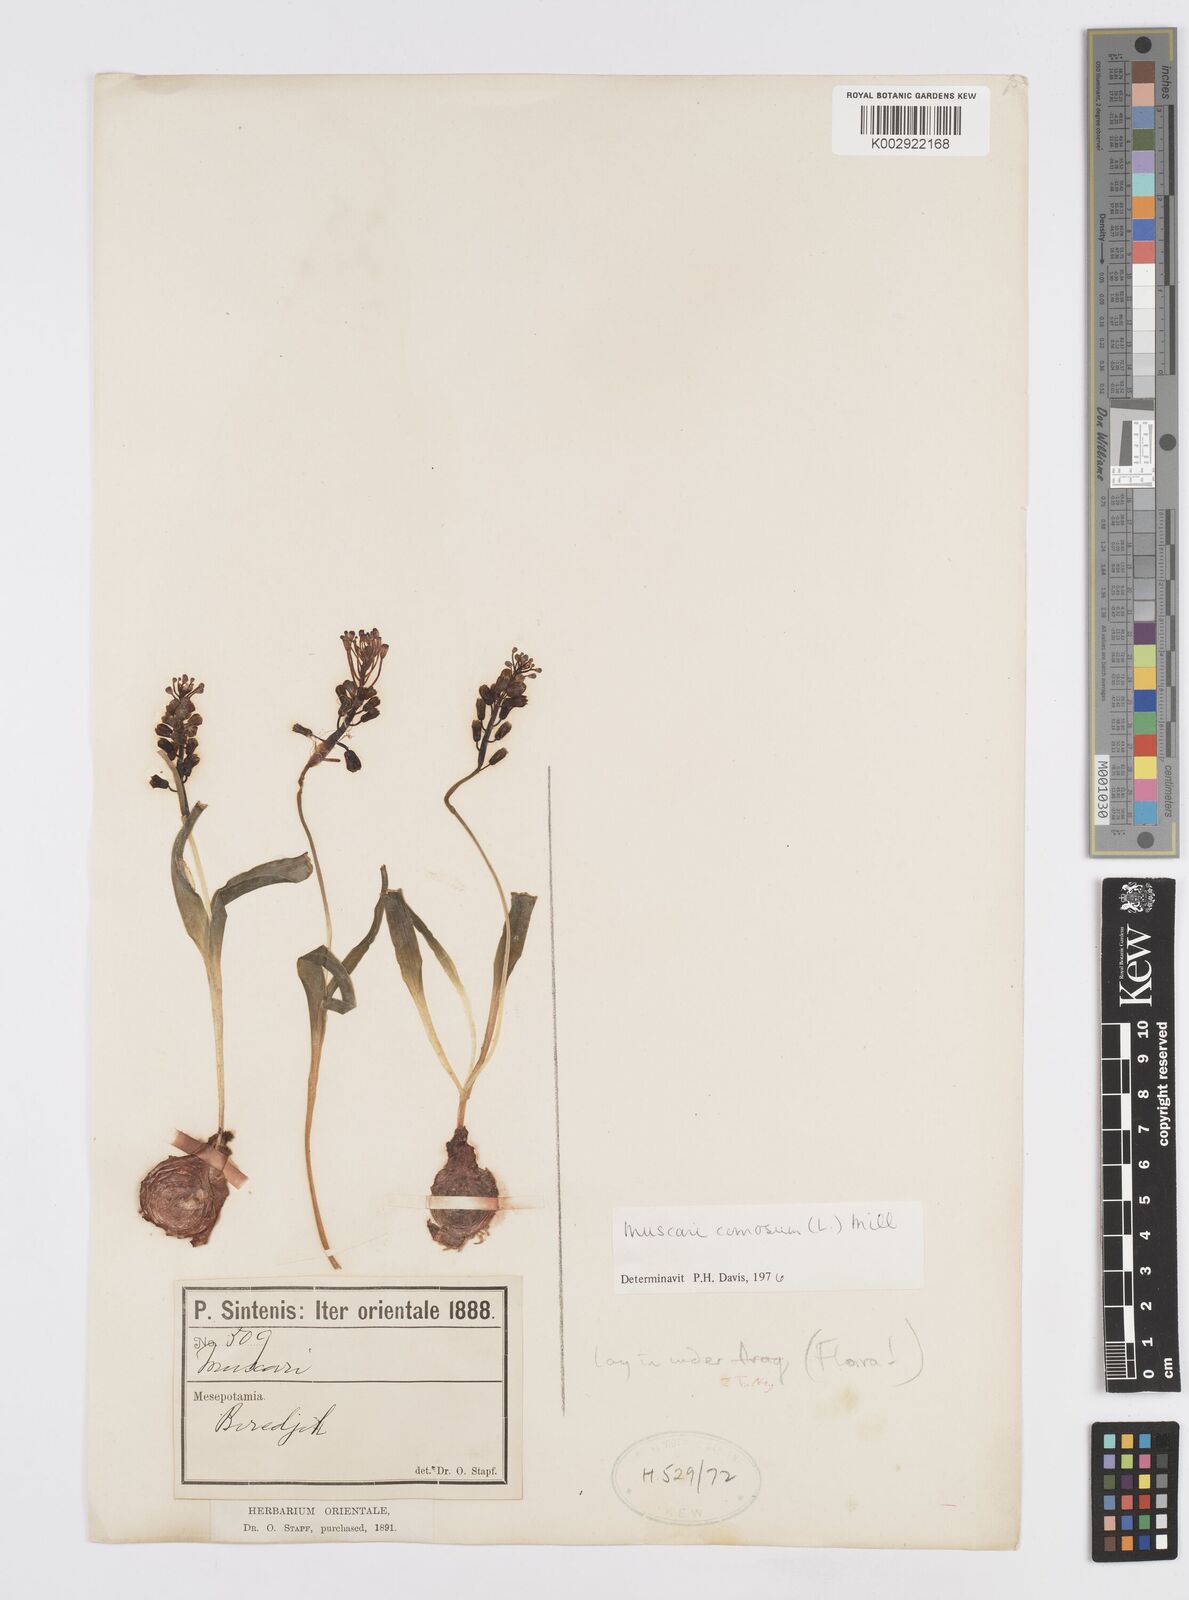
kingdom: Plantae
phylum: Tracheophyta
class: Liliopsida
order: Asparagales
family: Asparagaceae
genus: Muscari
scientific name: Muscari comosum
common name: Tassel hyacinth
